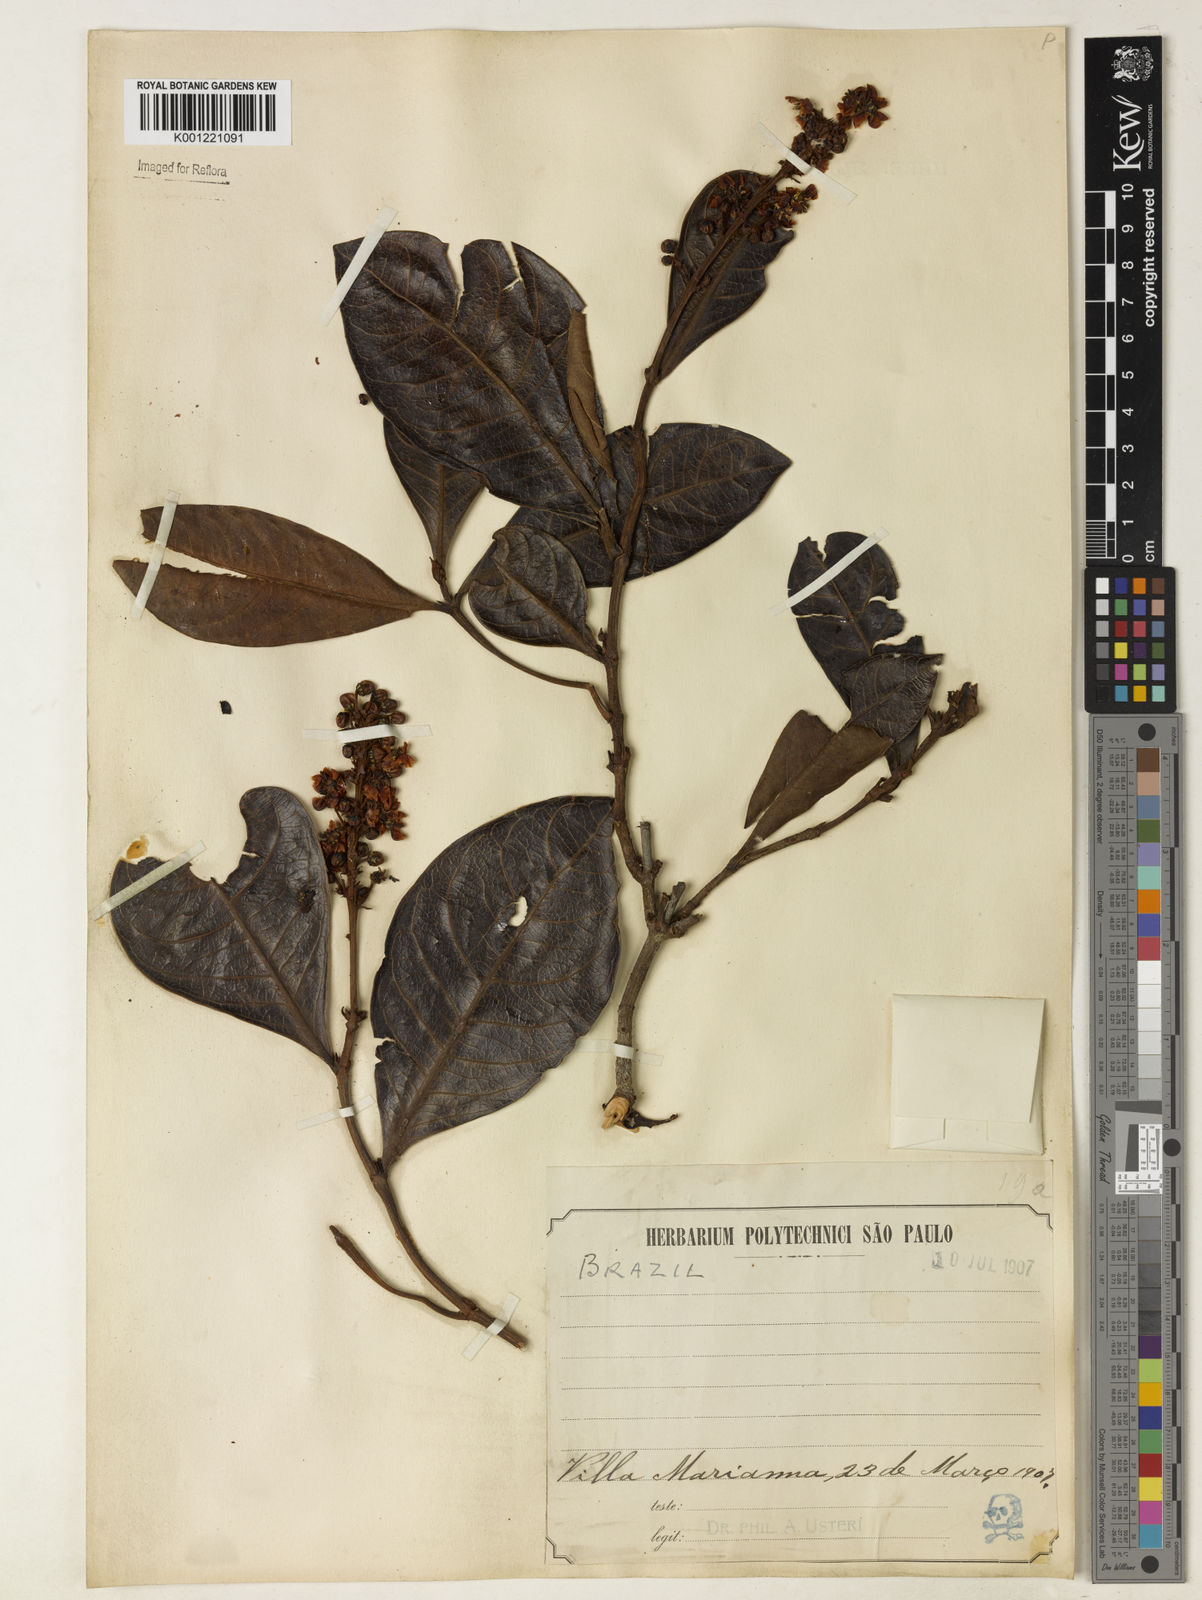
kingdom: Plantae
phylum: Tracheophyta
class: Magnoliopsida
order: Malpighiales
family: Malpighiaceae
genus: Byrsonima
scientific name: Byrsonima intermedia
